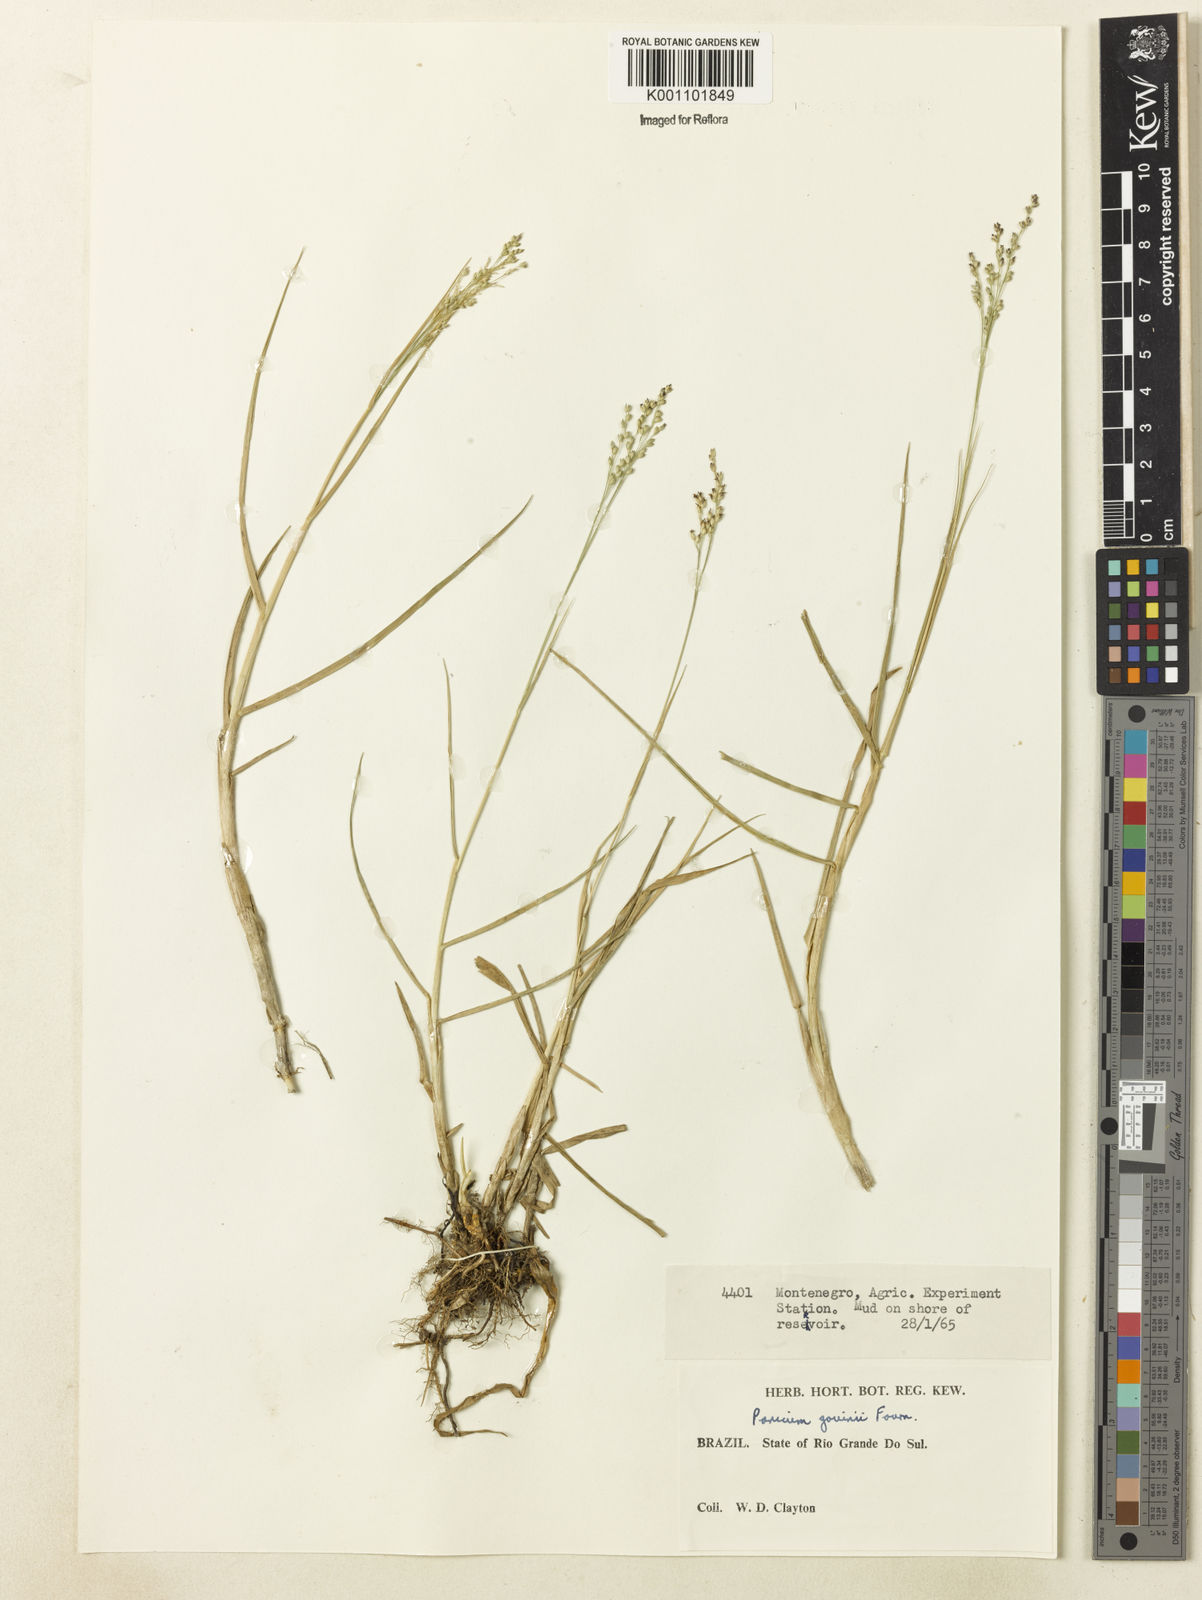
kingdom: Plantae
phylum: Tracheophyta
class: Liliopsida
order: Poales
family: Poaceae
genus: Panicum
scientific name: Panicum gouinii
